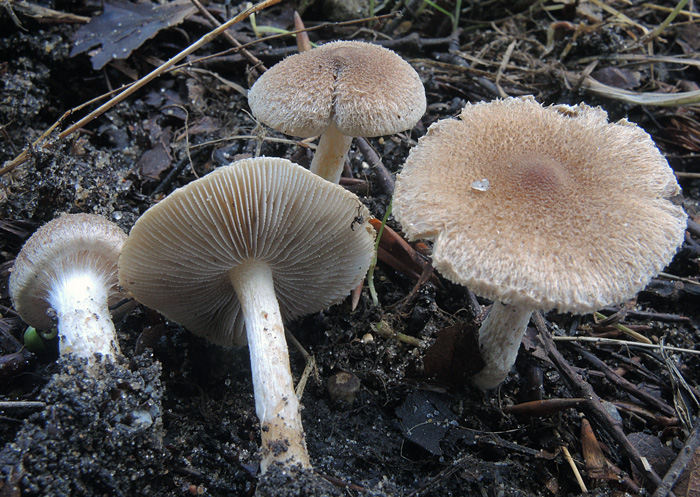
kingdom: Fungi
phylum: Basidiomycota
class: Agaricomycetes
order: Agaricales
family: Inocybaceae
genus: Inocybe
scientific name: Inocybe
